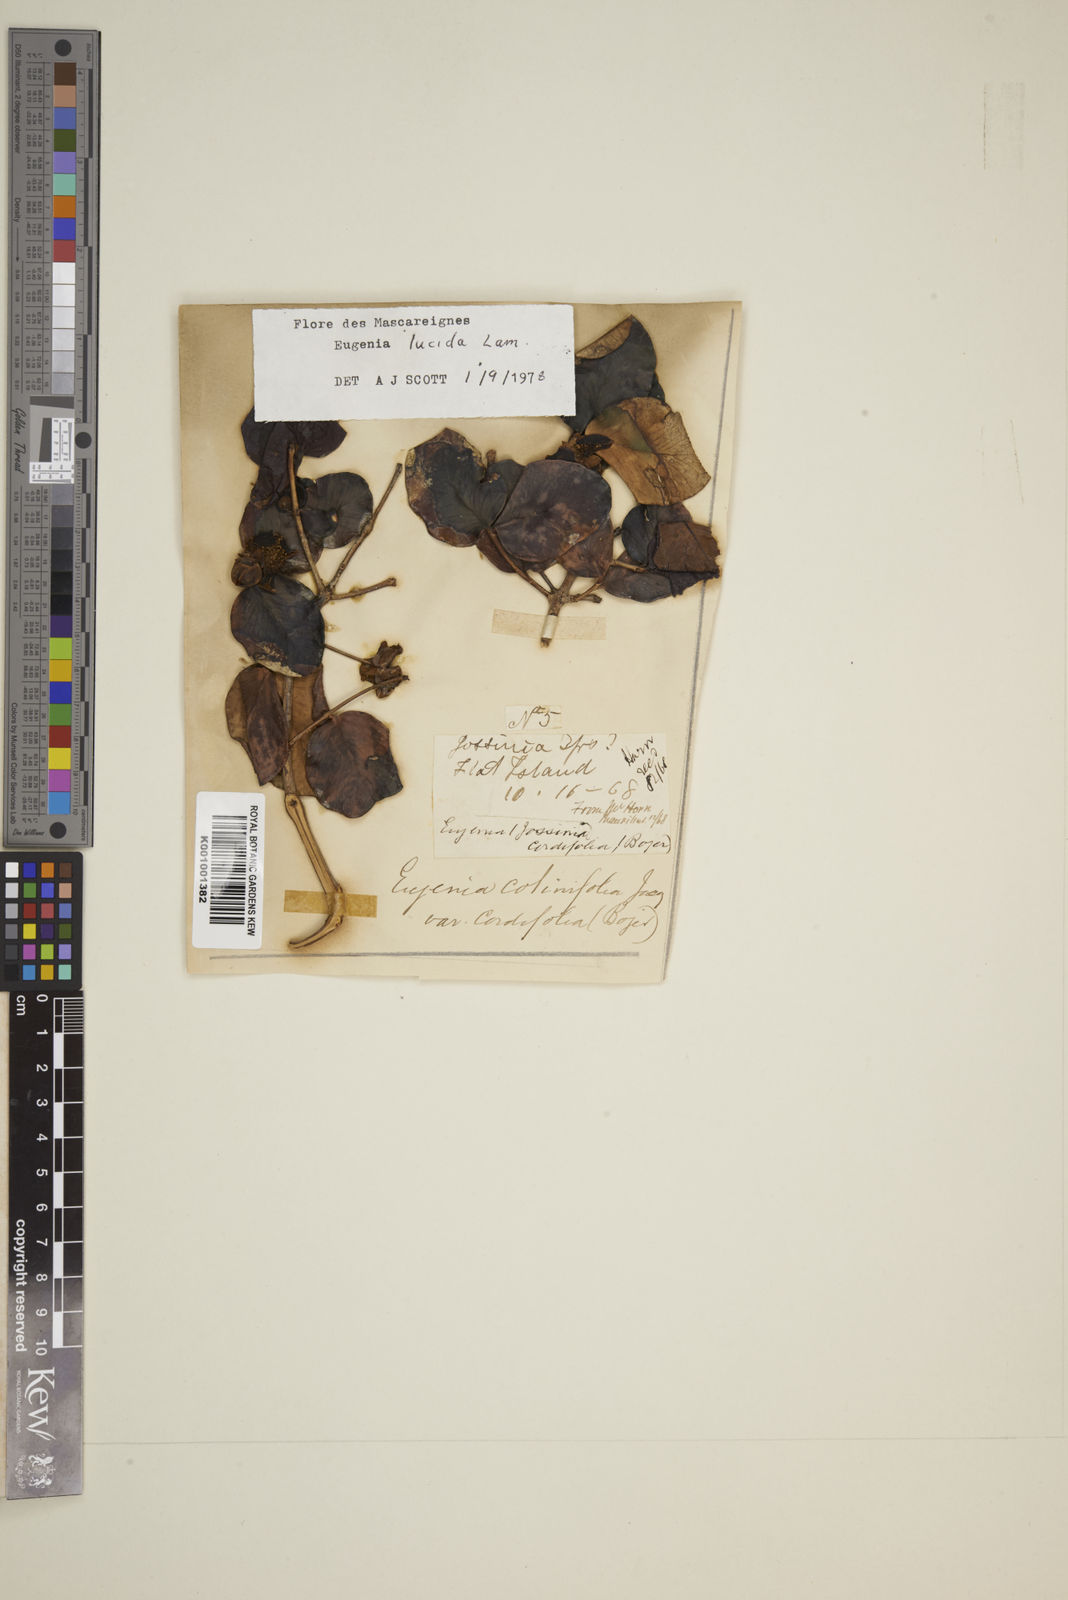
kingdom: Plantae
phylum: Tracheophyta
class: Magnoliopsida
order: Myrtales
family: Myrtaceae
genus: Eugenia
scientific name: Eugenia lucida
